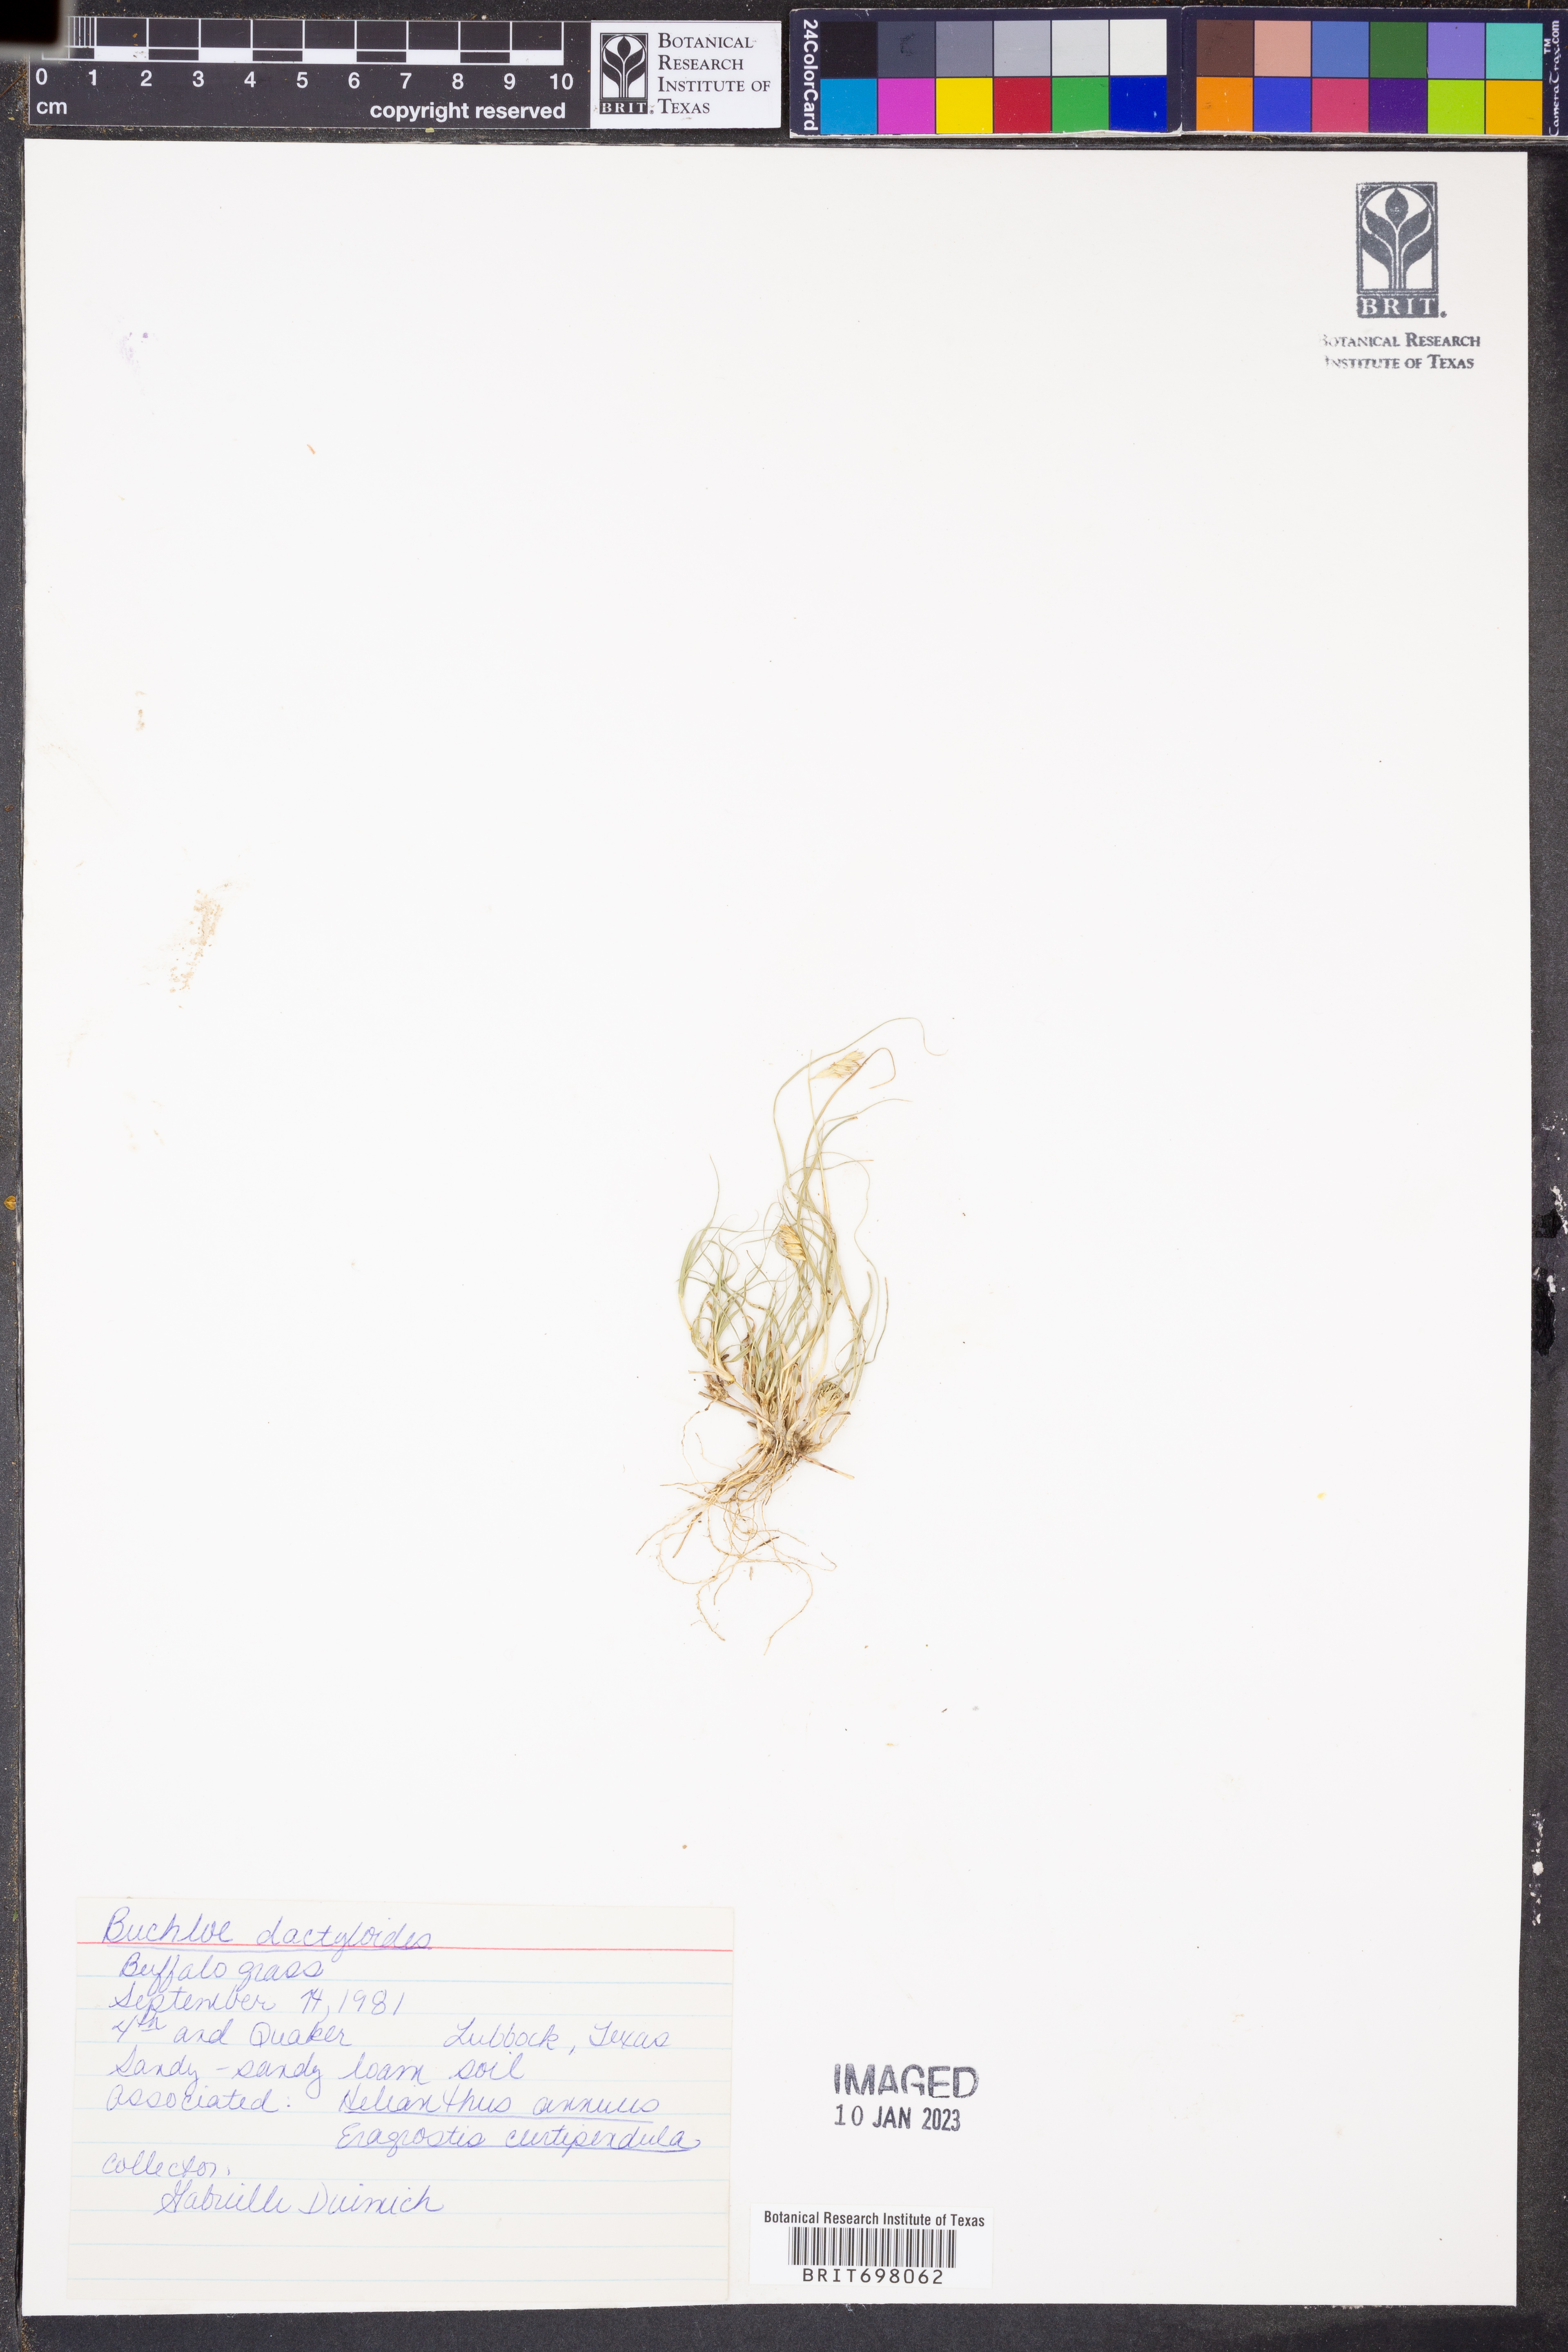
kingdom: Plantae
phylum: Tracheophyta
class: Liliopsida
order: Poales
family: Poaceae
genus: Bouteloua
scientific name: Bouteloua dactyloides
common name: Buffalo grass
